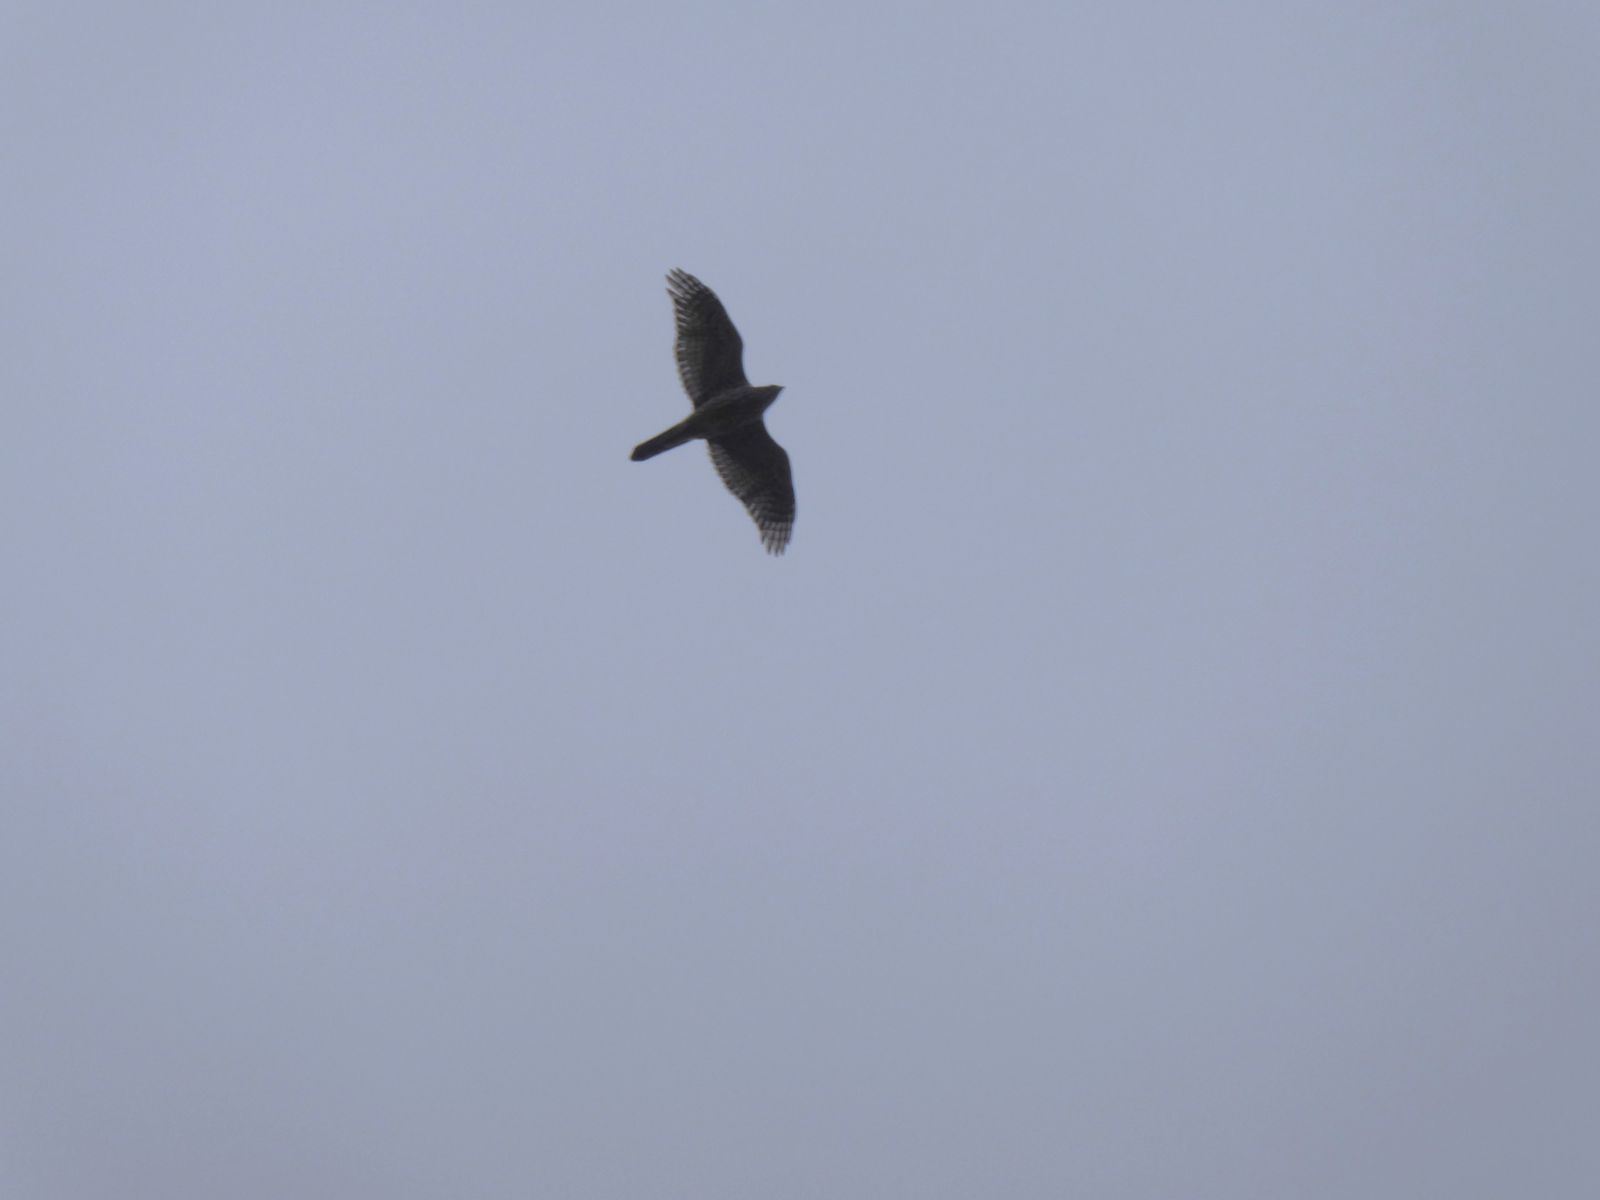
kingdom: Animalia
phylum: Chordata
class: Aves
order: Accipitriformes
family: Accipitridae
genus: Accipiter
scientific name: Accipiter gentilis
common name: Northern goshawk
